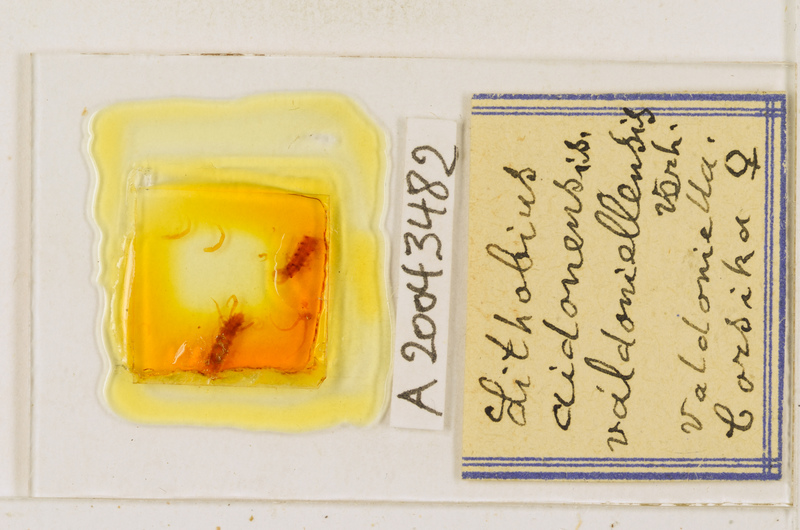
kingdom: Animalia
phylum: Arthropoda
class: Chilopoda
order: Lithobiomorpha
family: Lithobiidae
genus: Lithobius
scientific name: Lithobius acuminatus
